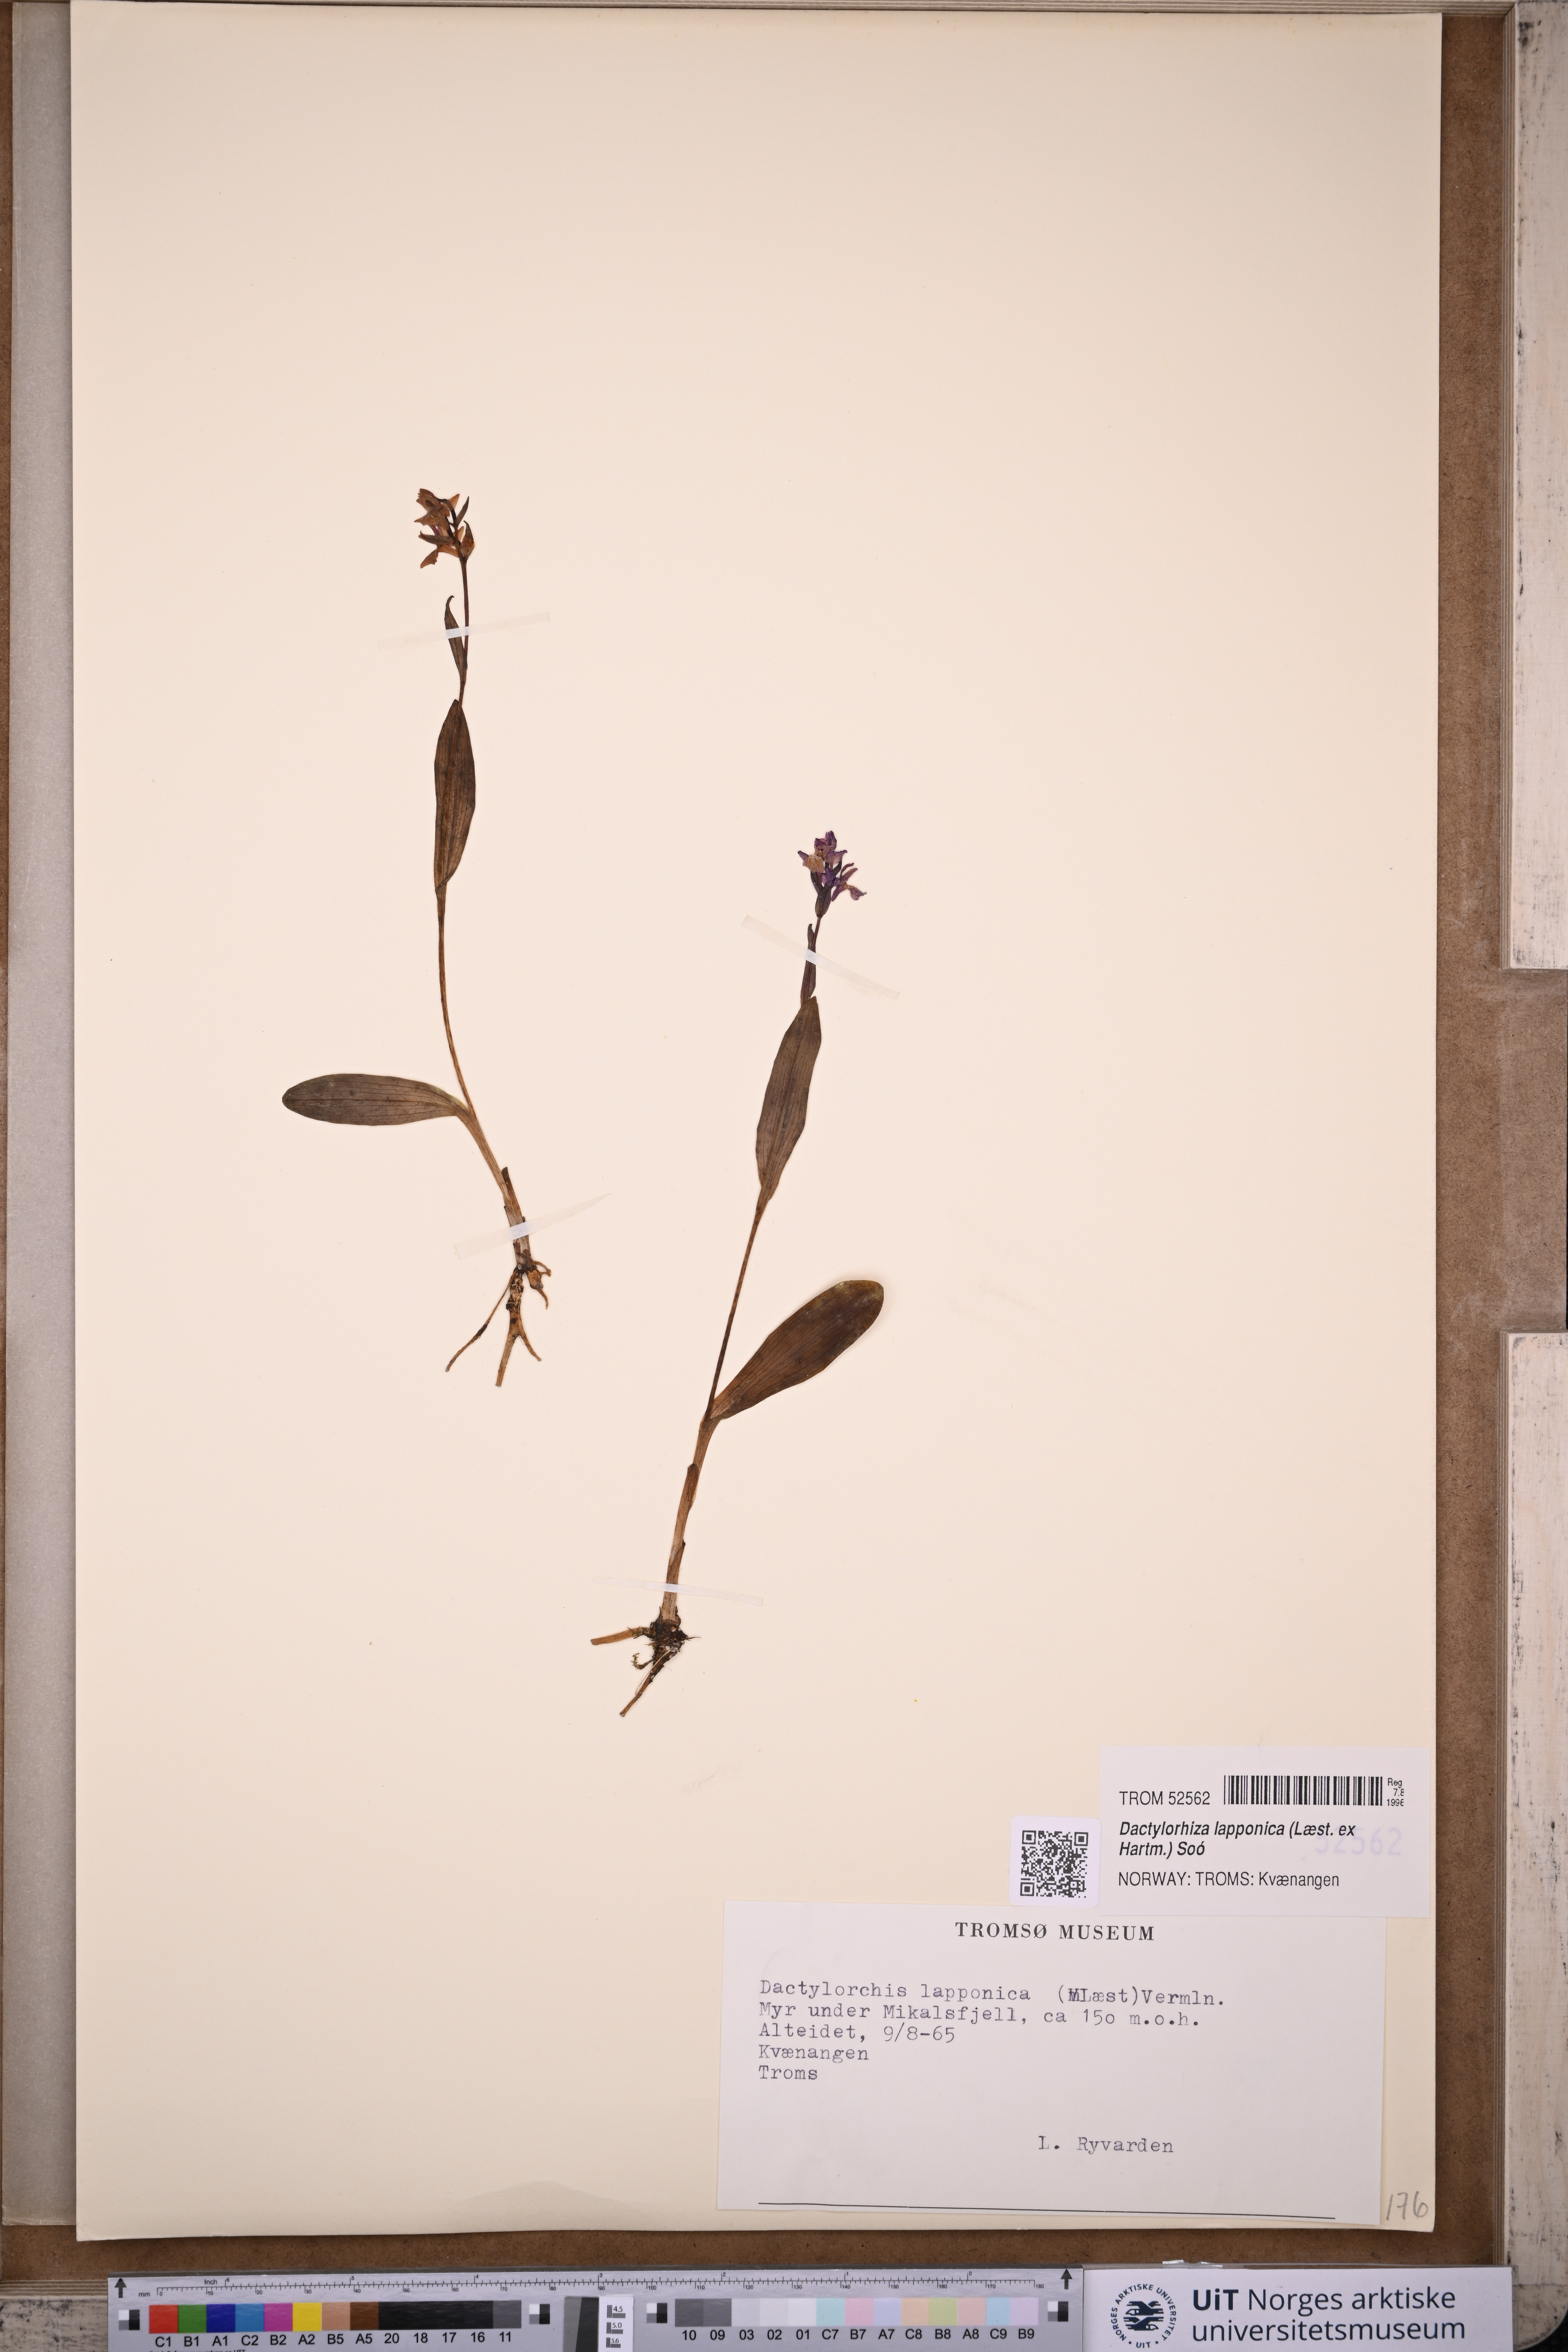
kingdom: Plantae
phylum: Tracheophyta
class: Liliopsida
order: Asparagales
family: Orchidaceae
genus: Dactylorhiza
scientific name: Dactylorhiza majalis
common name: Marsh orchid
